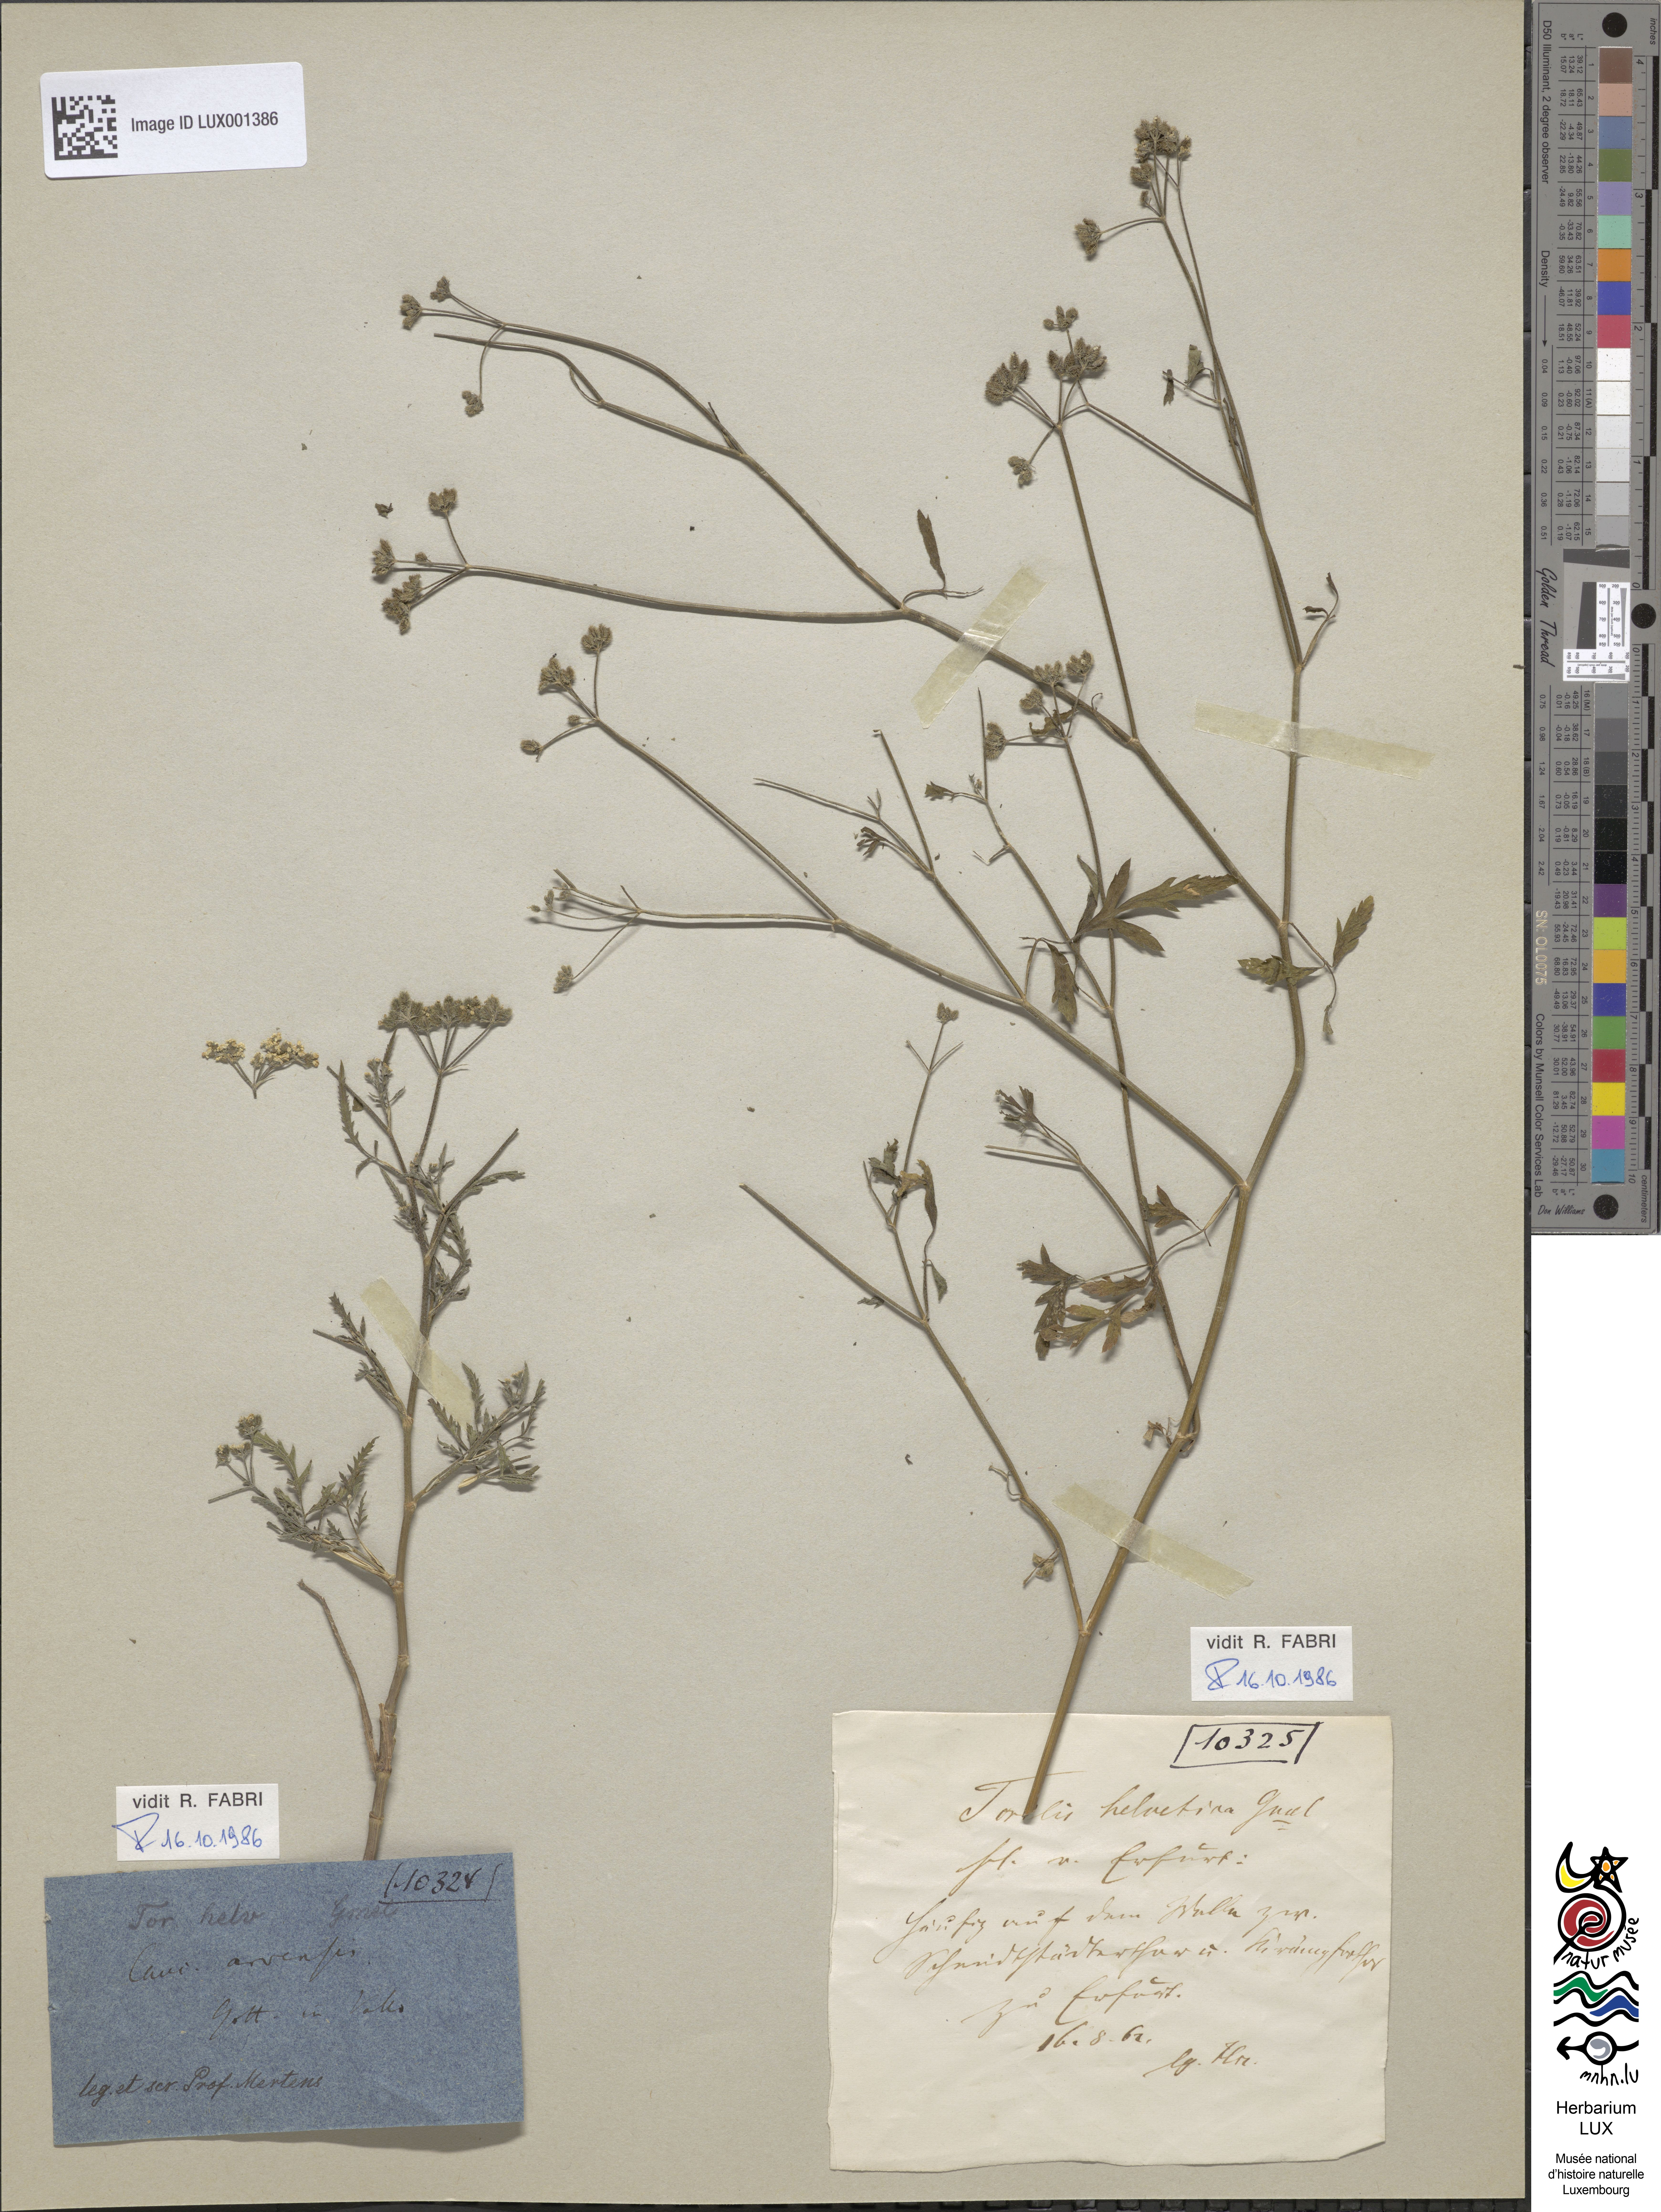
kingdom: Plantae
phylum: Tracheophyta
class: Magnoliopsida
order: Apiales
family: Apiaceae
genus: Torilis
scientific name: Torilis arvensis
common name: Spreading hedge-parsley
